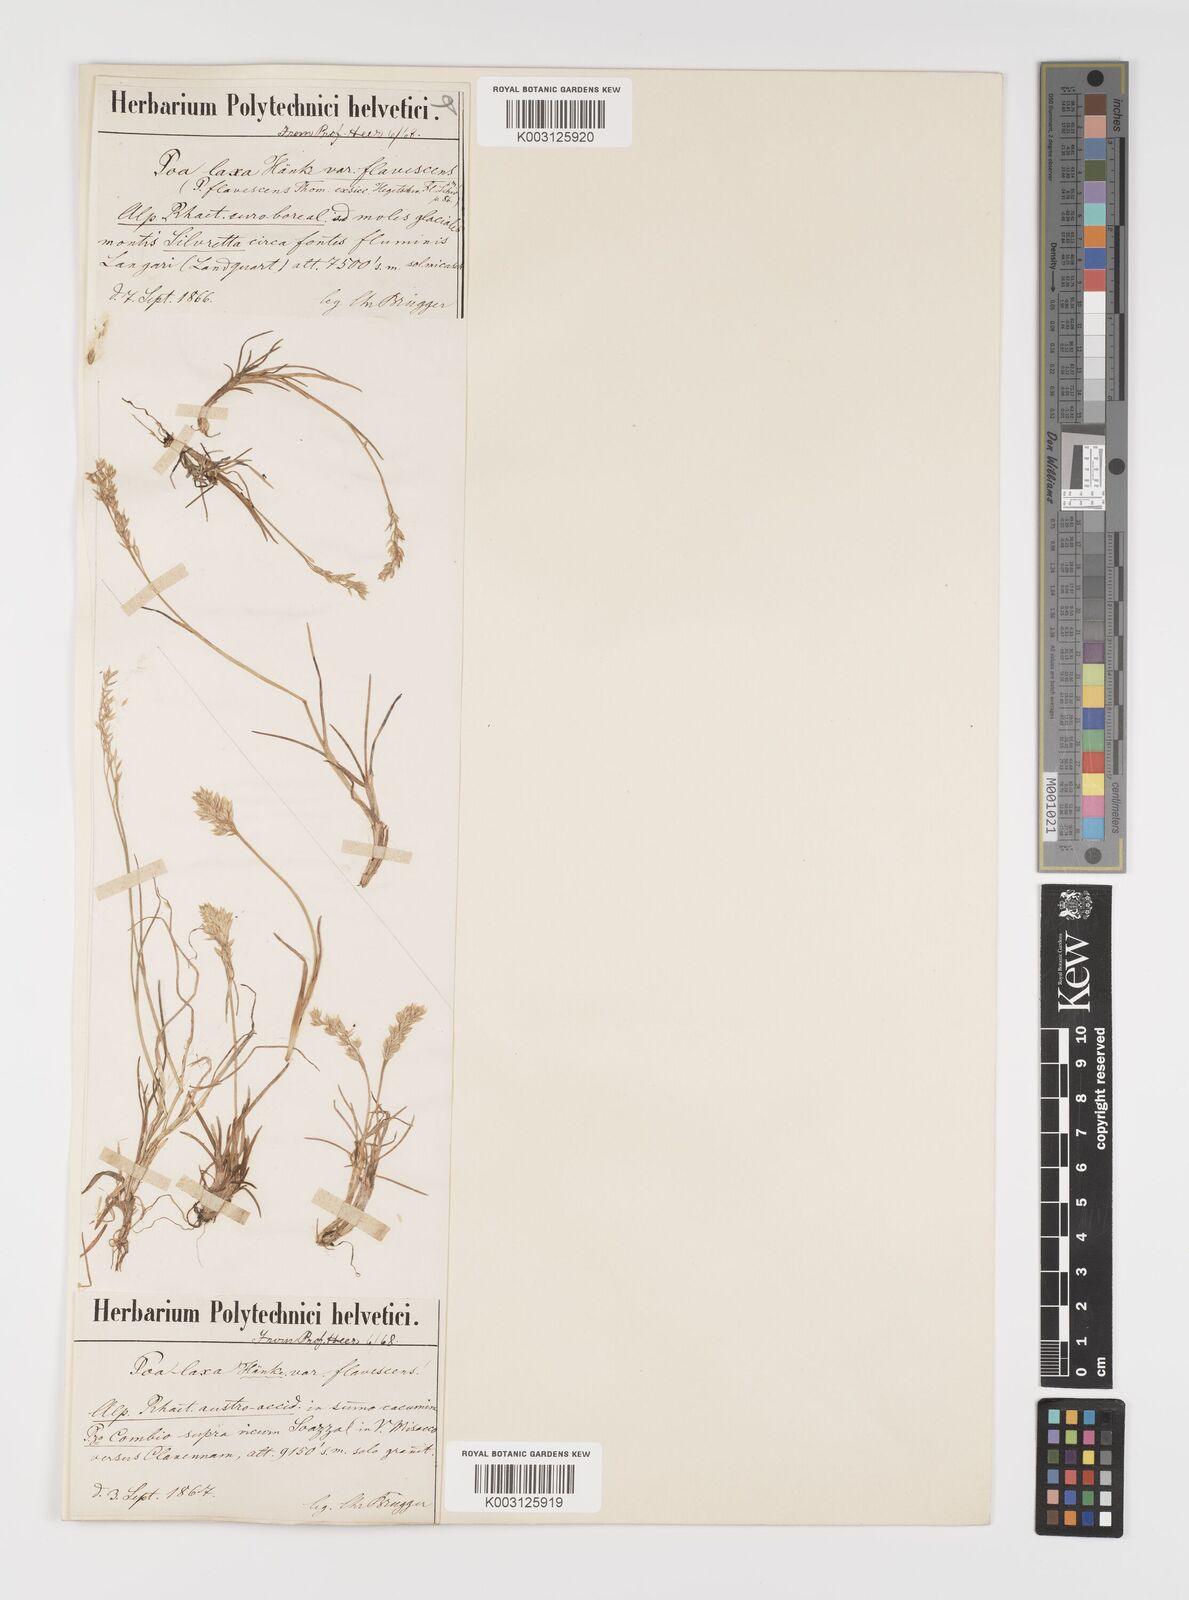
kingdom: Plantae
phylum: Tracheophyta
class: Liliopsida
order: Poales
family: Poaceae
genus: Poa
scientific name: Poa laxa
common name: Lax bluegrass
